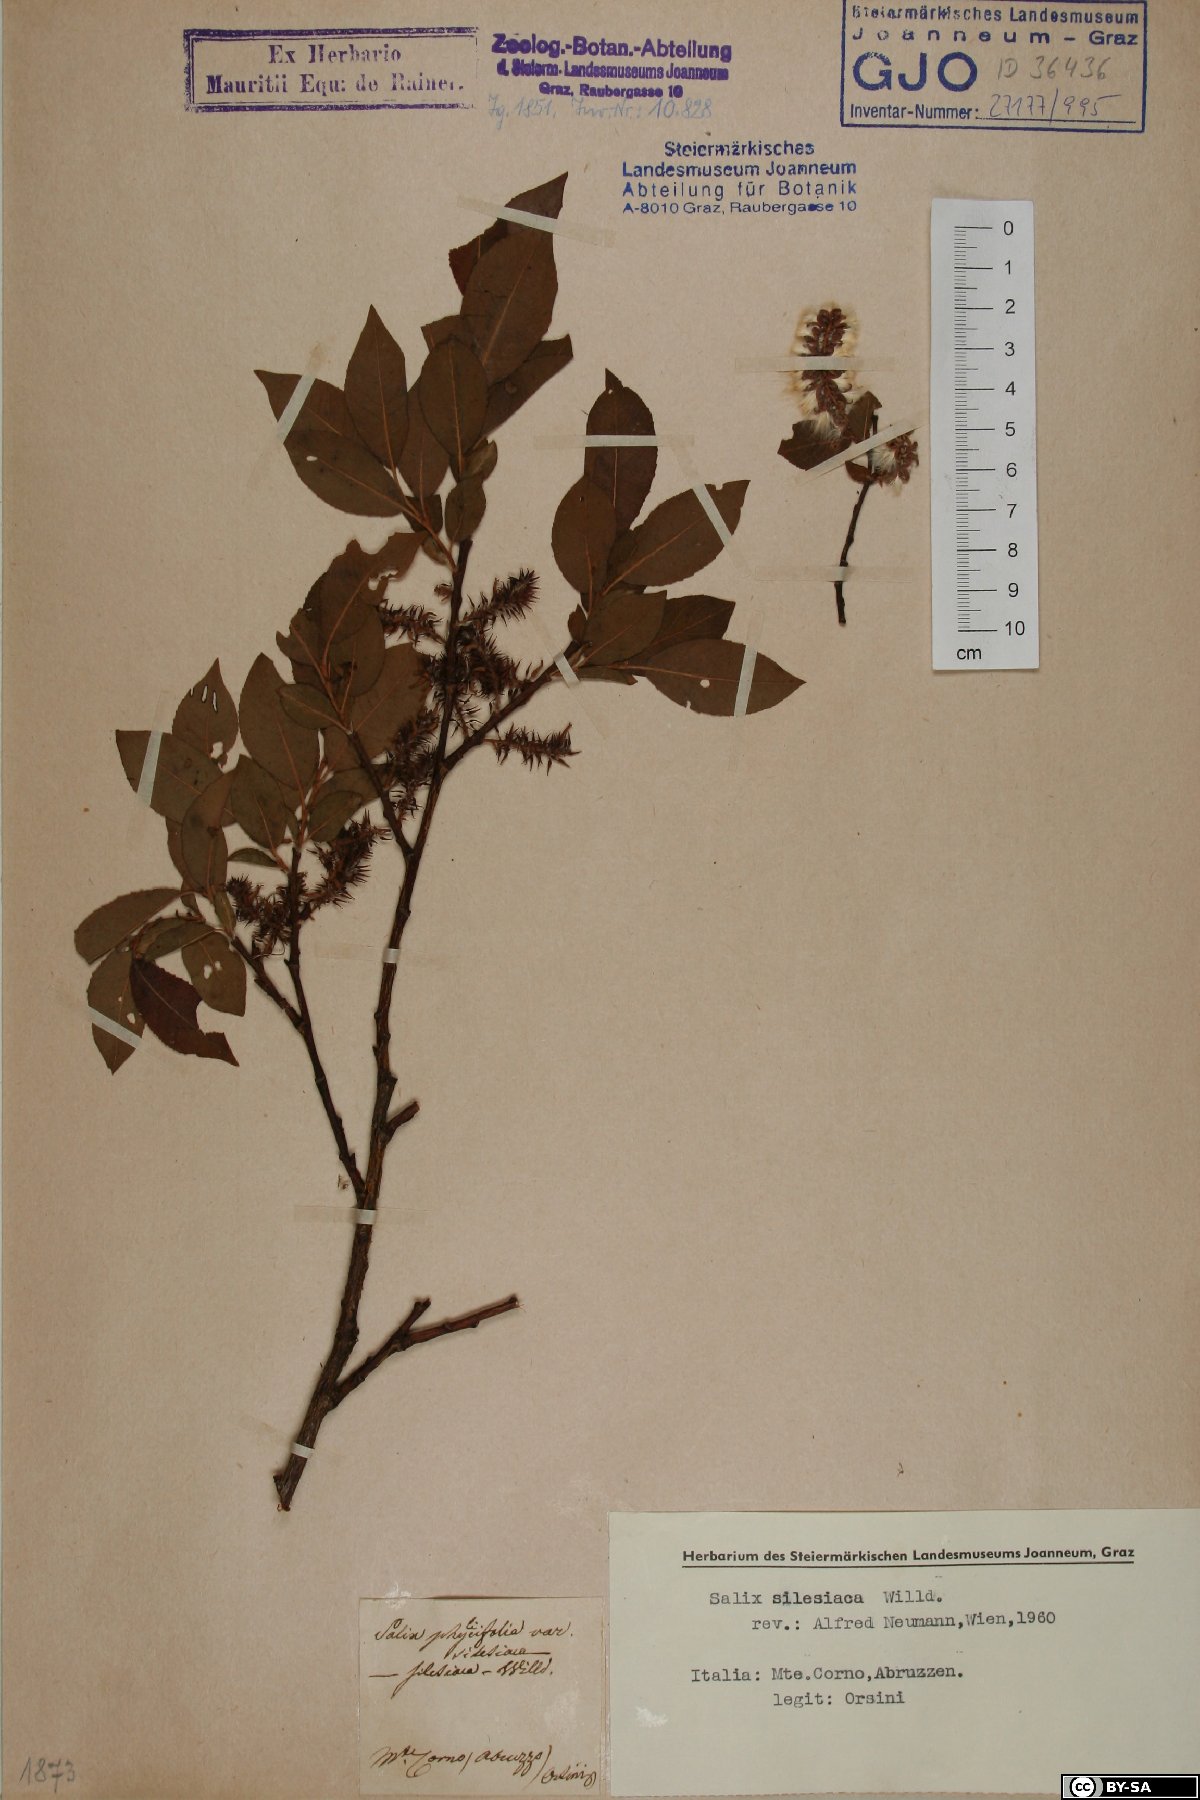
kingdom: Plantae
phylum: Tracheophyta
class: Magnoliopsida
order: Malpighiales
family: Salicaceae
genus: Salix
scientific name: Salix silesiaca
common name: Silesian willow
